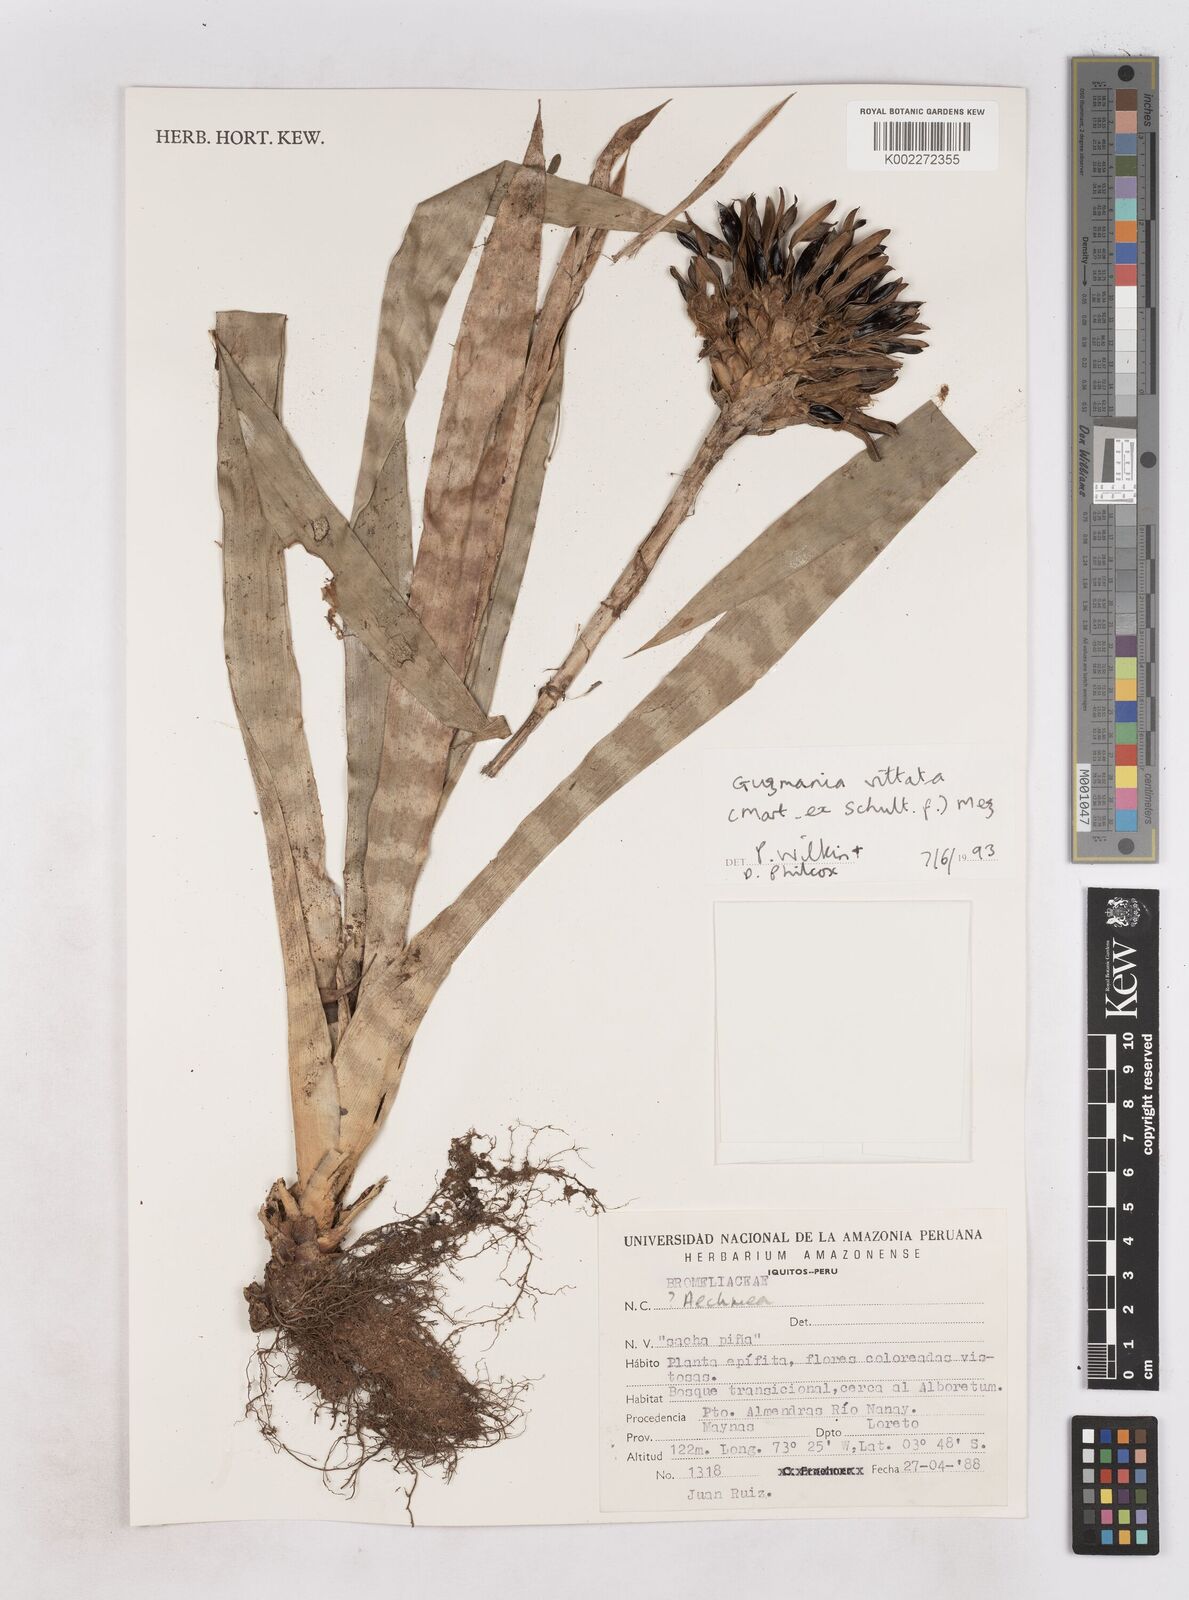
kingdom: Plantae
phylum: Tracheophyta
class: Liliopsida
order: Poales
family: Bromeliaceae
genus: Guzmania
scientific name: Guzmania vittata
